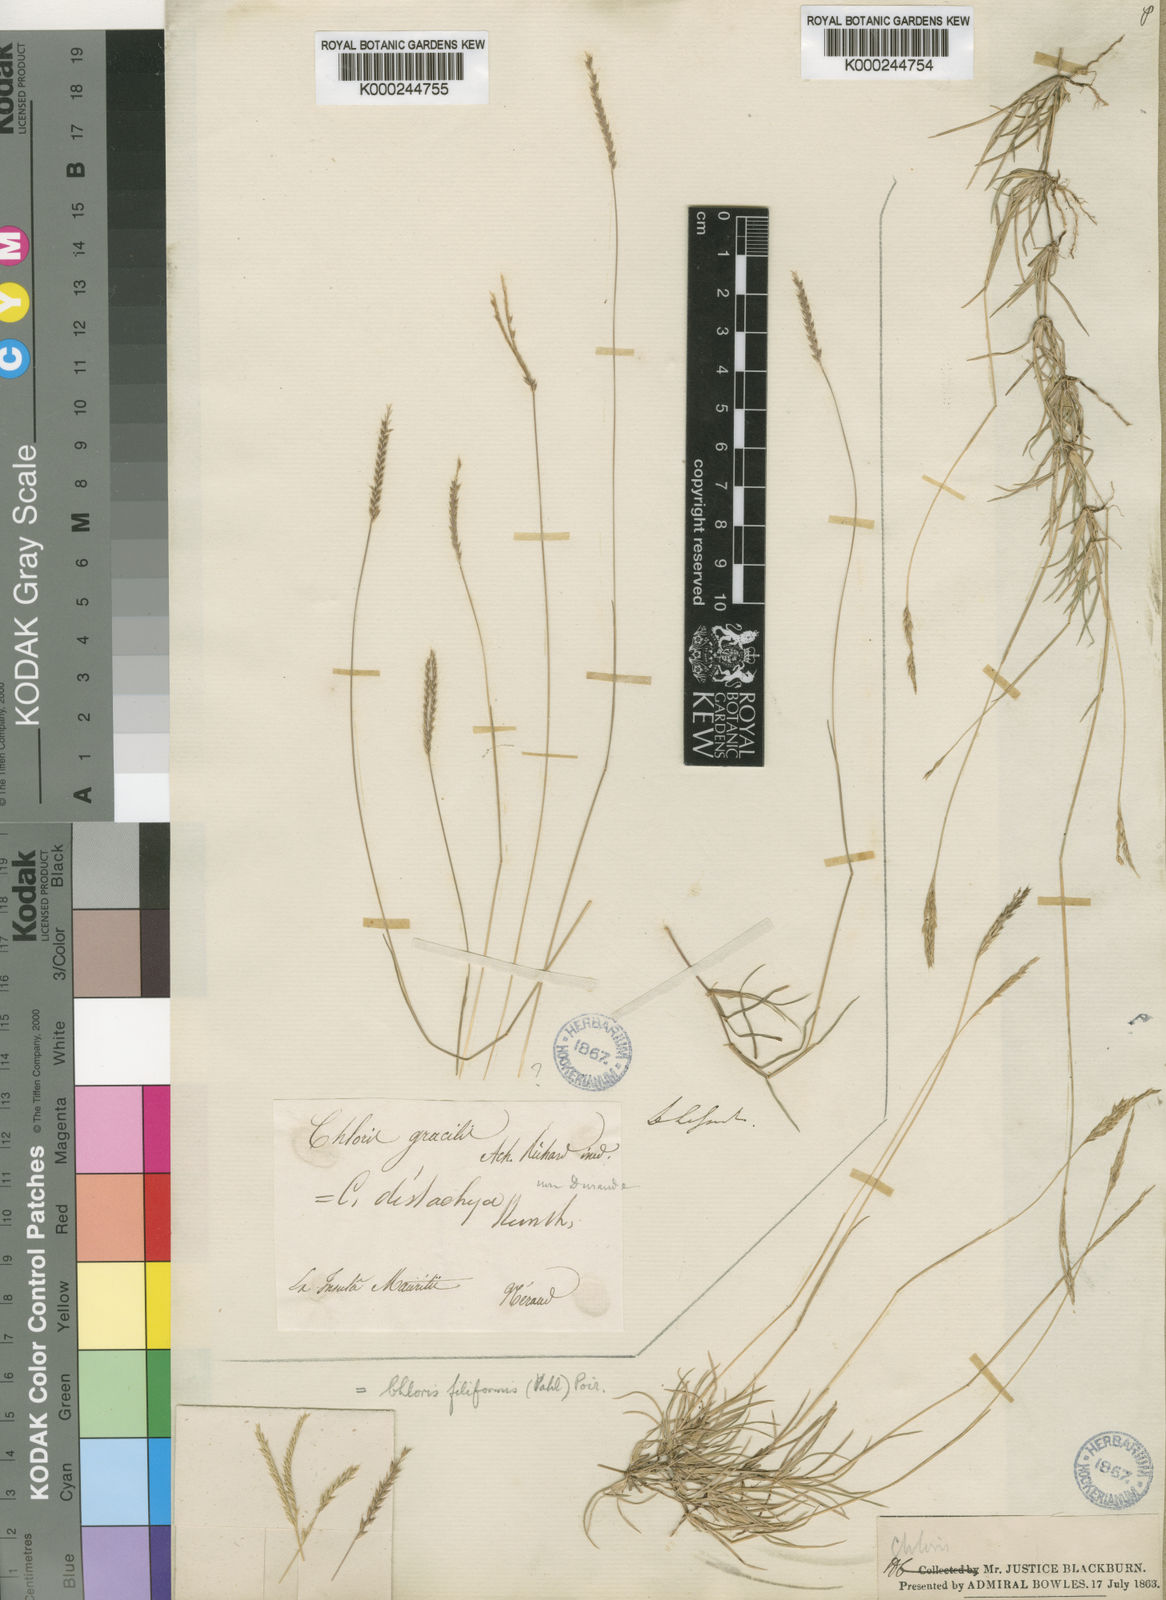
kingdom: Plantae
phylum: Tracheophyta
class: Liliopsida
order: Poales
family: Poaceae
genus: Chloris
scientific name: Chloris filiformis
